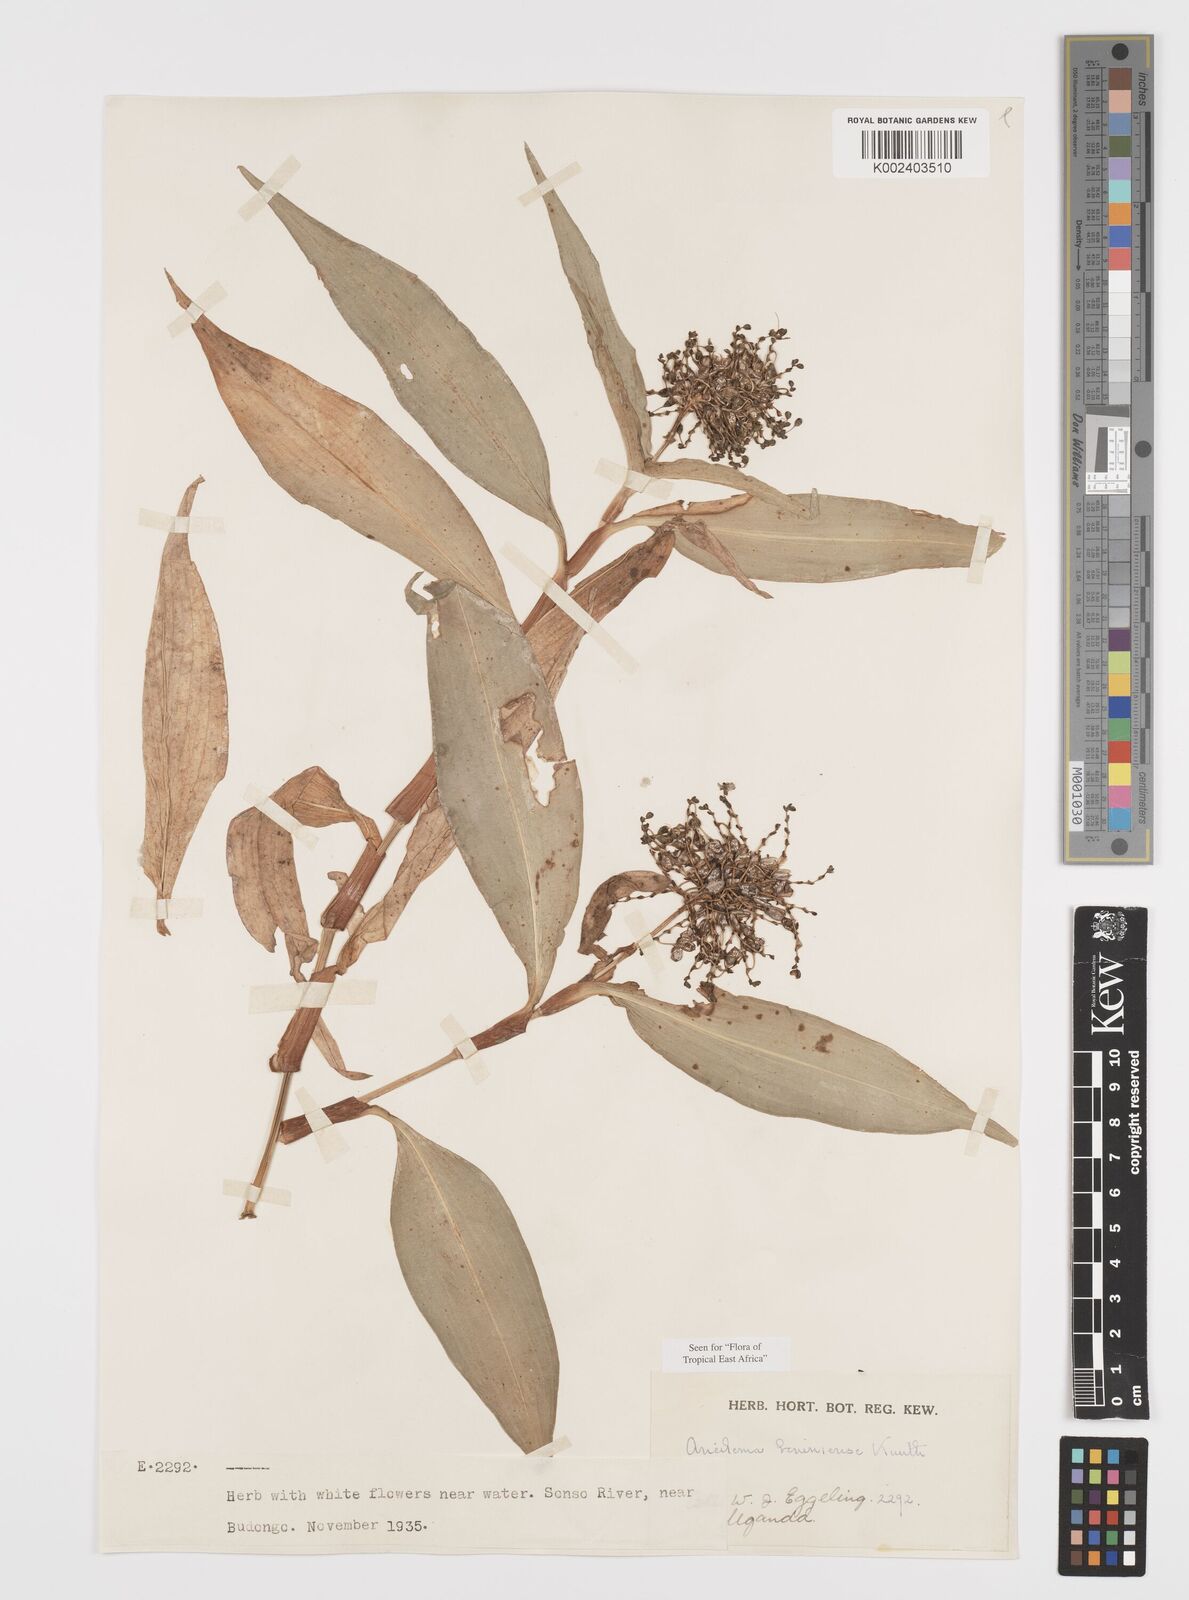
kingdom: Plantae
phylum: Tracheophyta
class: Liliopsida
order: Commelinales
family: Commelinaceae
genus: Aneilema
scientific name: Aneilema beniniense
